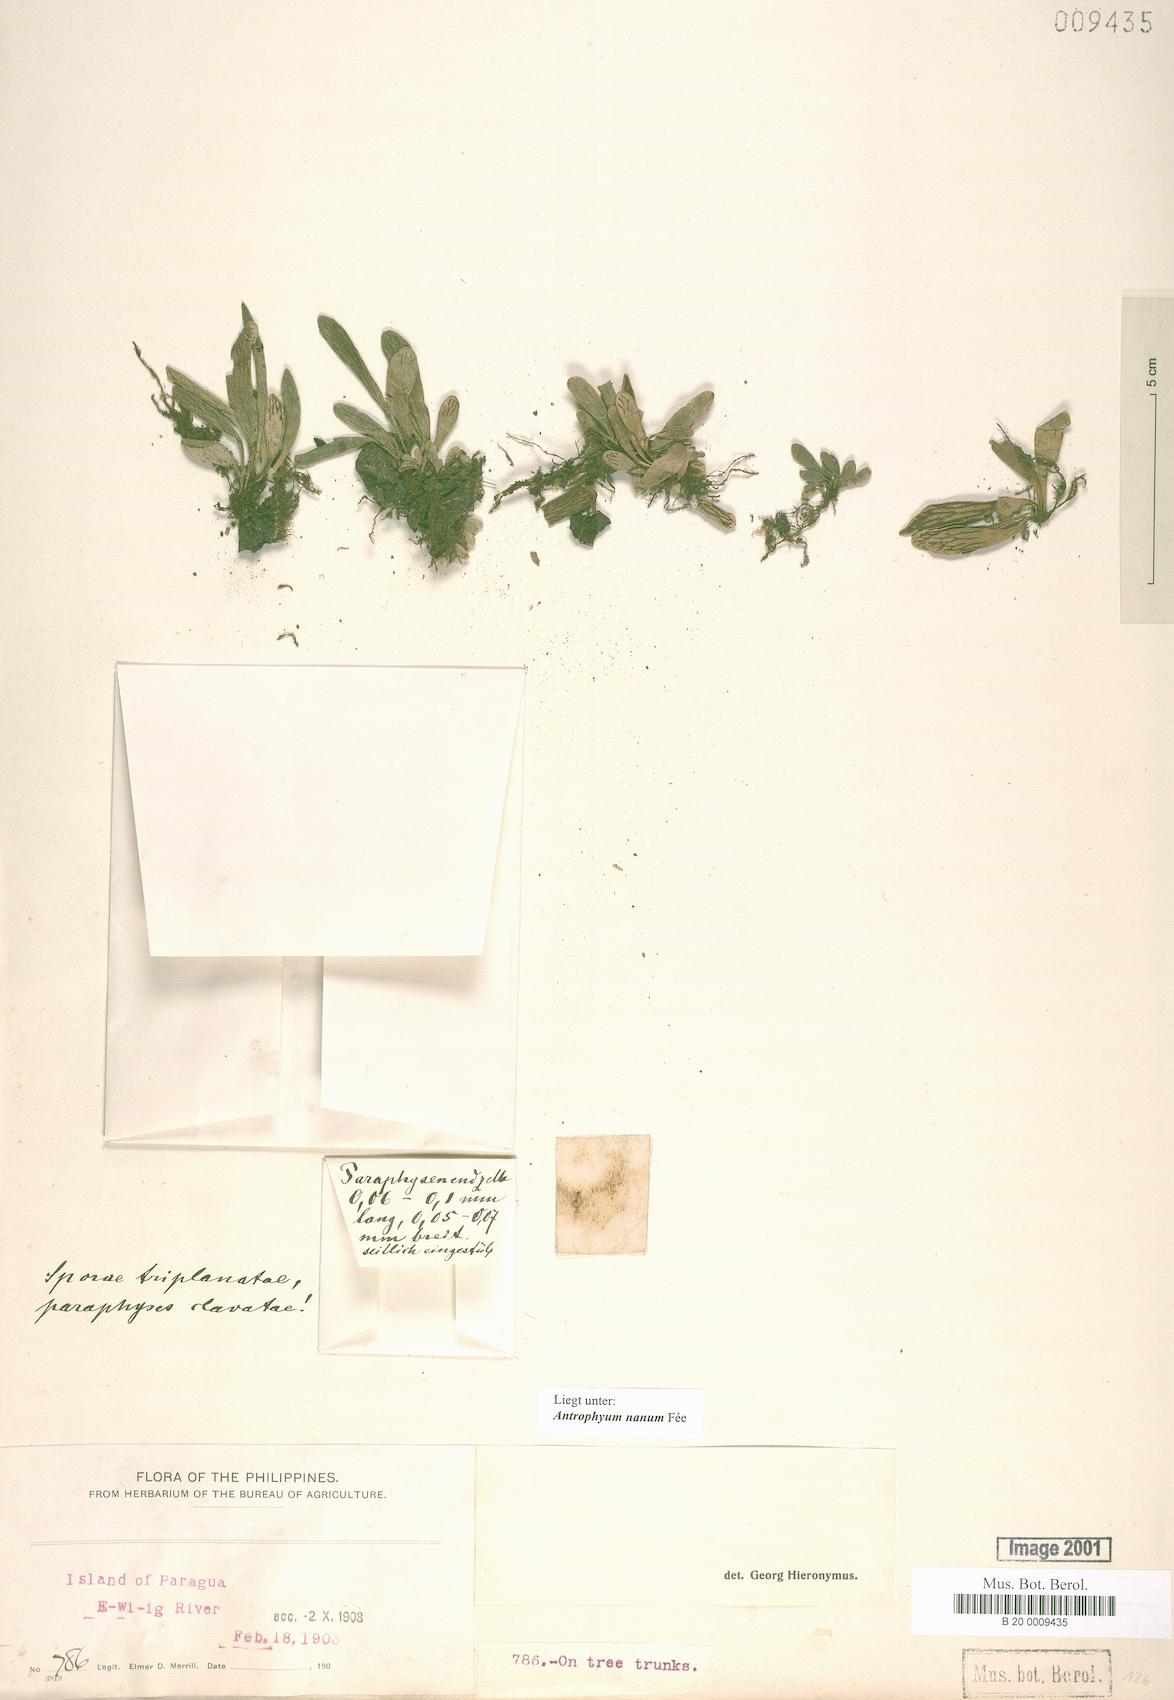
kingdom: Plantae
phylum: Tracheophyta
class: Polypodiopsida
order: Polypodiales
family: Pteridaceae
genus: Antrophyum
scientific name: Antrophyum callifolium
